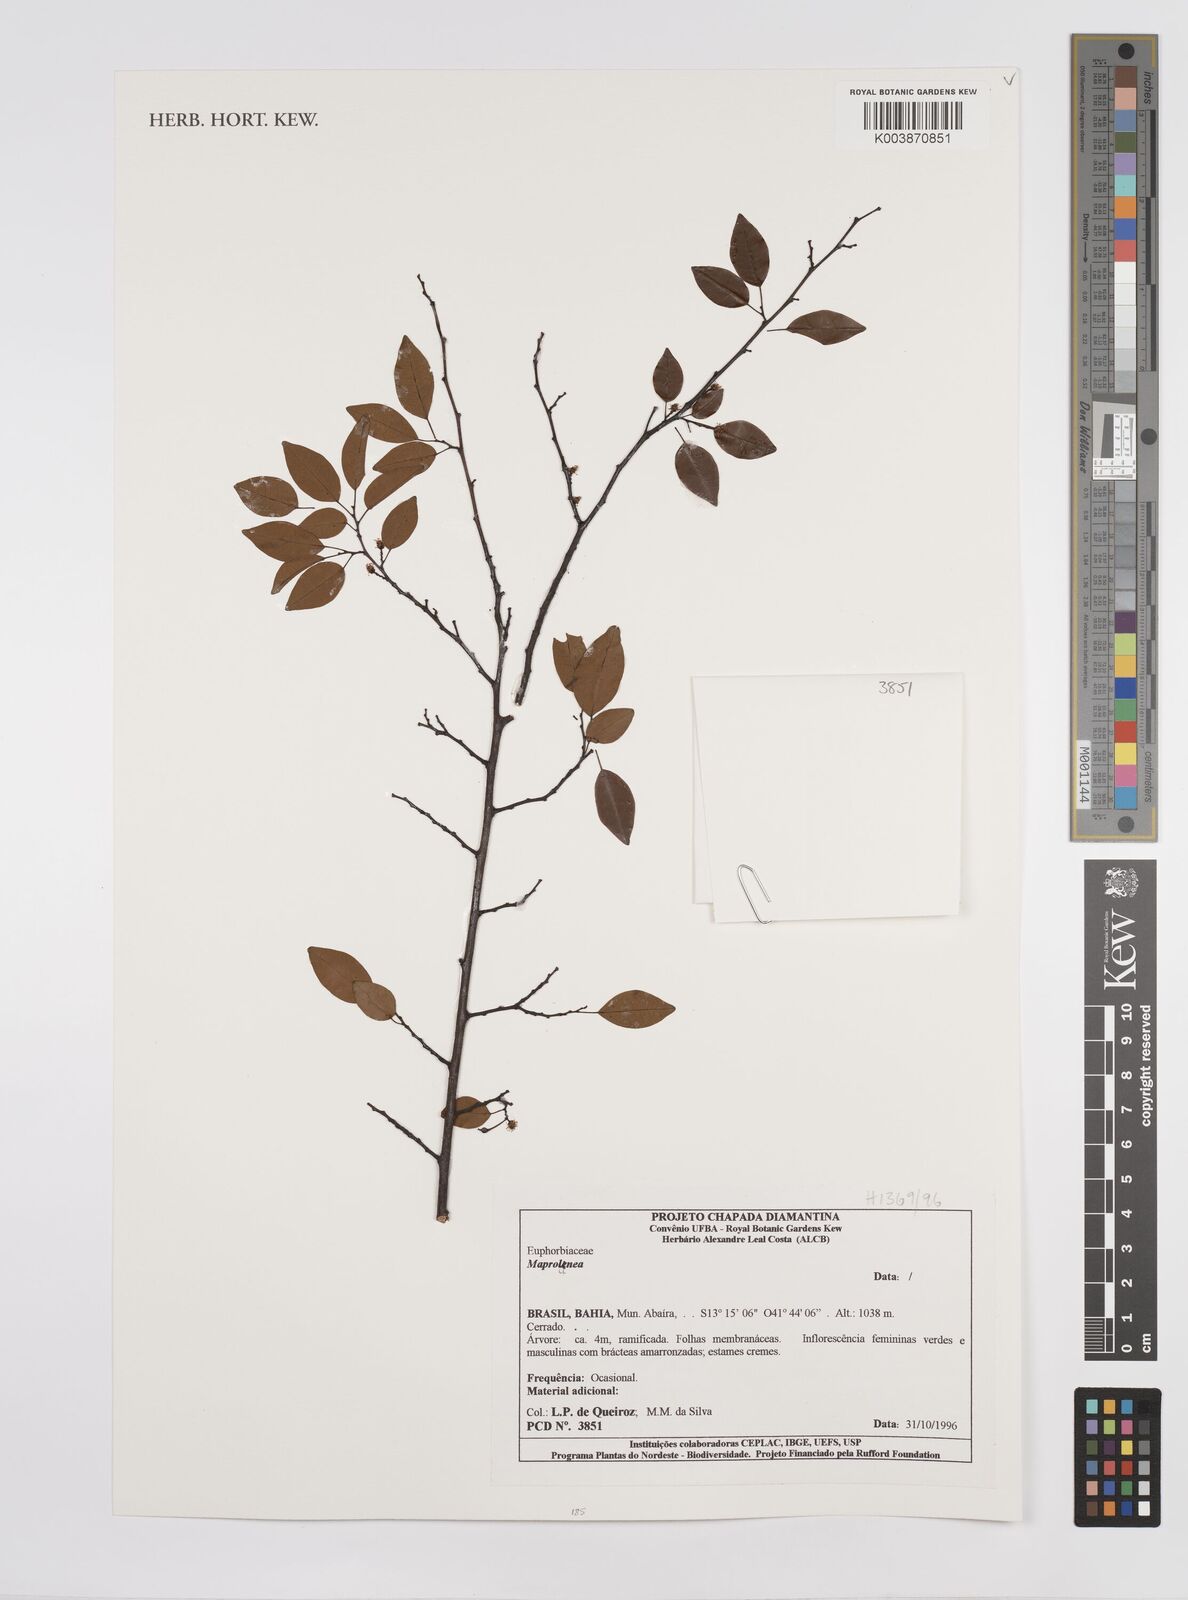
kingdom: Plantae
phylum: Tracheophyta
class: Magnoliopsida
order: Malpighiales
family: Euphorbiaceae
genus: Maprounea
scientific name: Maprounea
